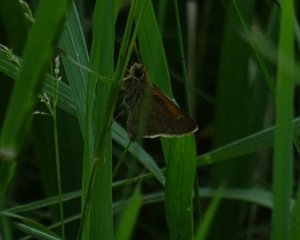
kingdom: Animalia
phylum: Arthropoda
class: Insecta
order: Lepidoptera
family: Hesperiidae
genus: Polites
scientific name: Polites themistocles
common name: Tawny-edged Skipper
